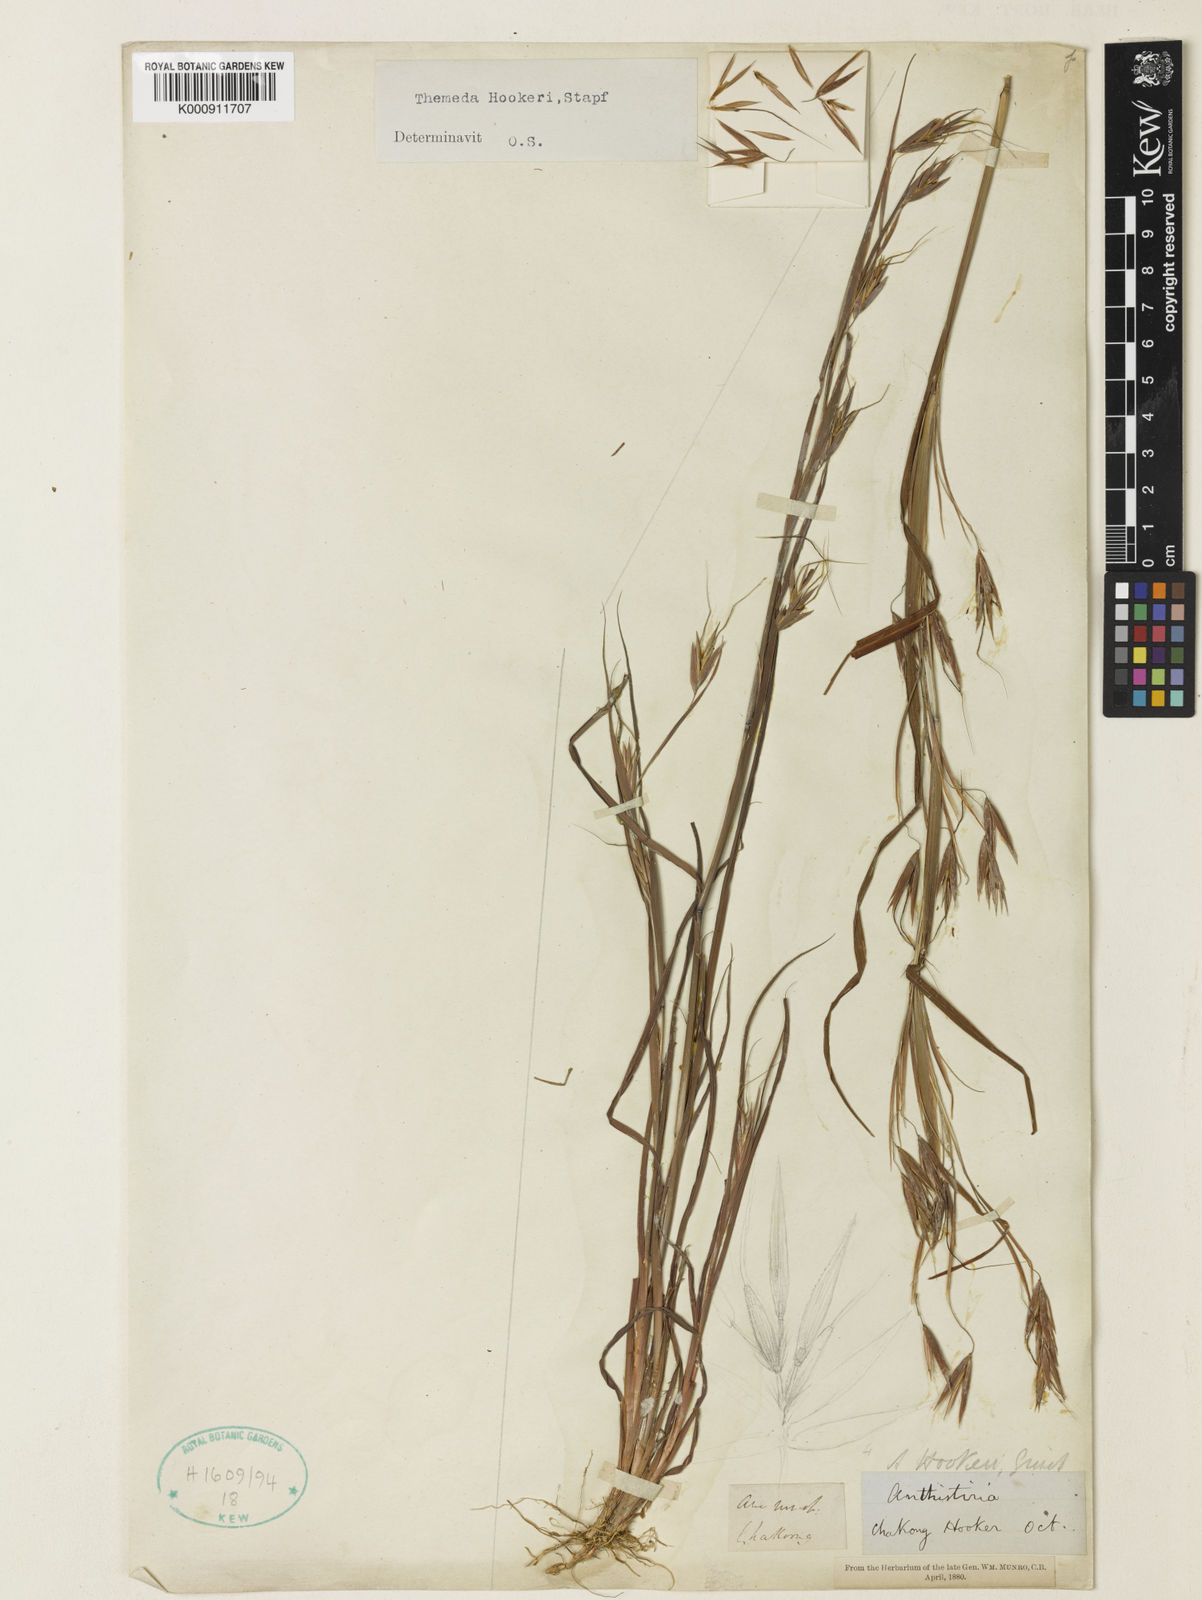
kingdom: Plantae
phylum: Tracheophyta
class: Liliopsida
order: Poales
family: Poaceae
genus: Themeda
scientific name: Themeda
